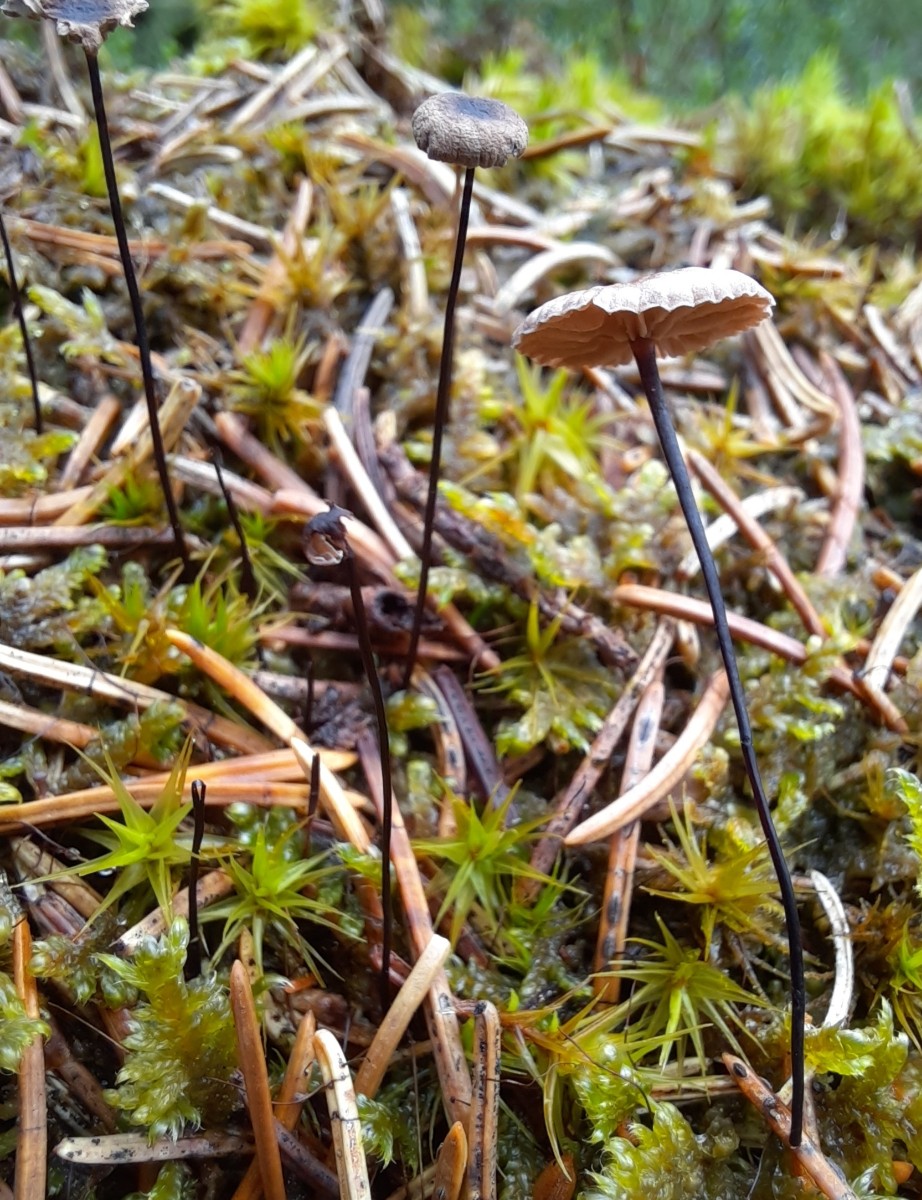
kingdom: Fungi
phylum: Basidiomycota
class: Agaricomycetes
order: Agaricales
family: Omphalotaceae
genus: Gymnopus
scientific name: Gymnopus androsaceus
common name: trådstokket fladhat
